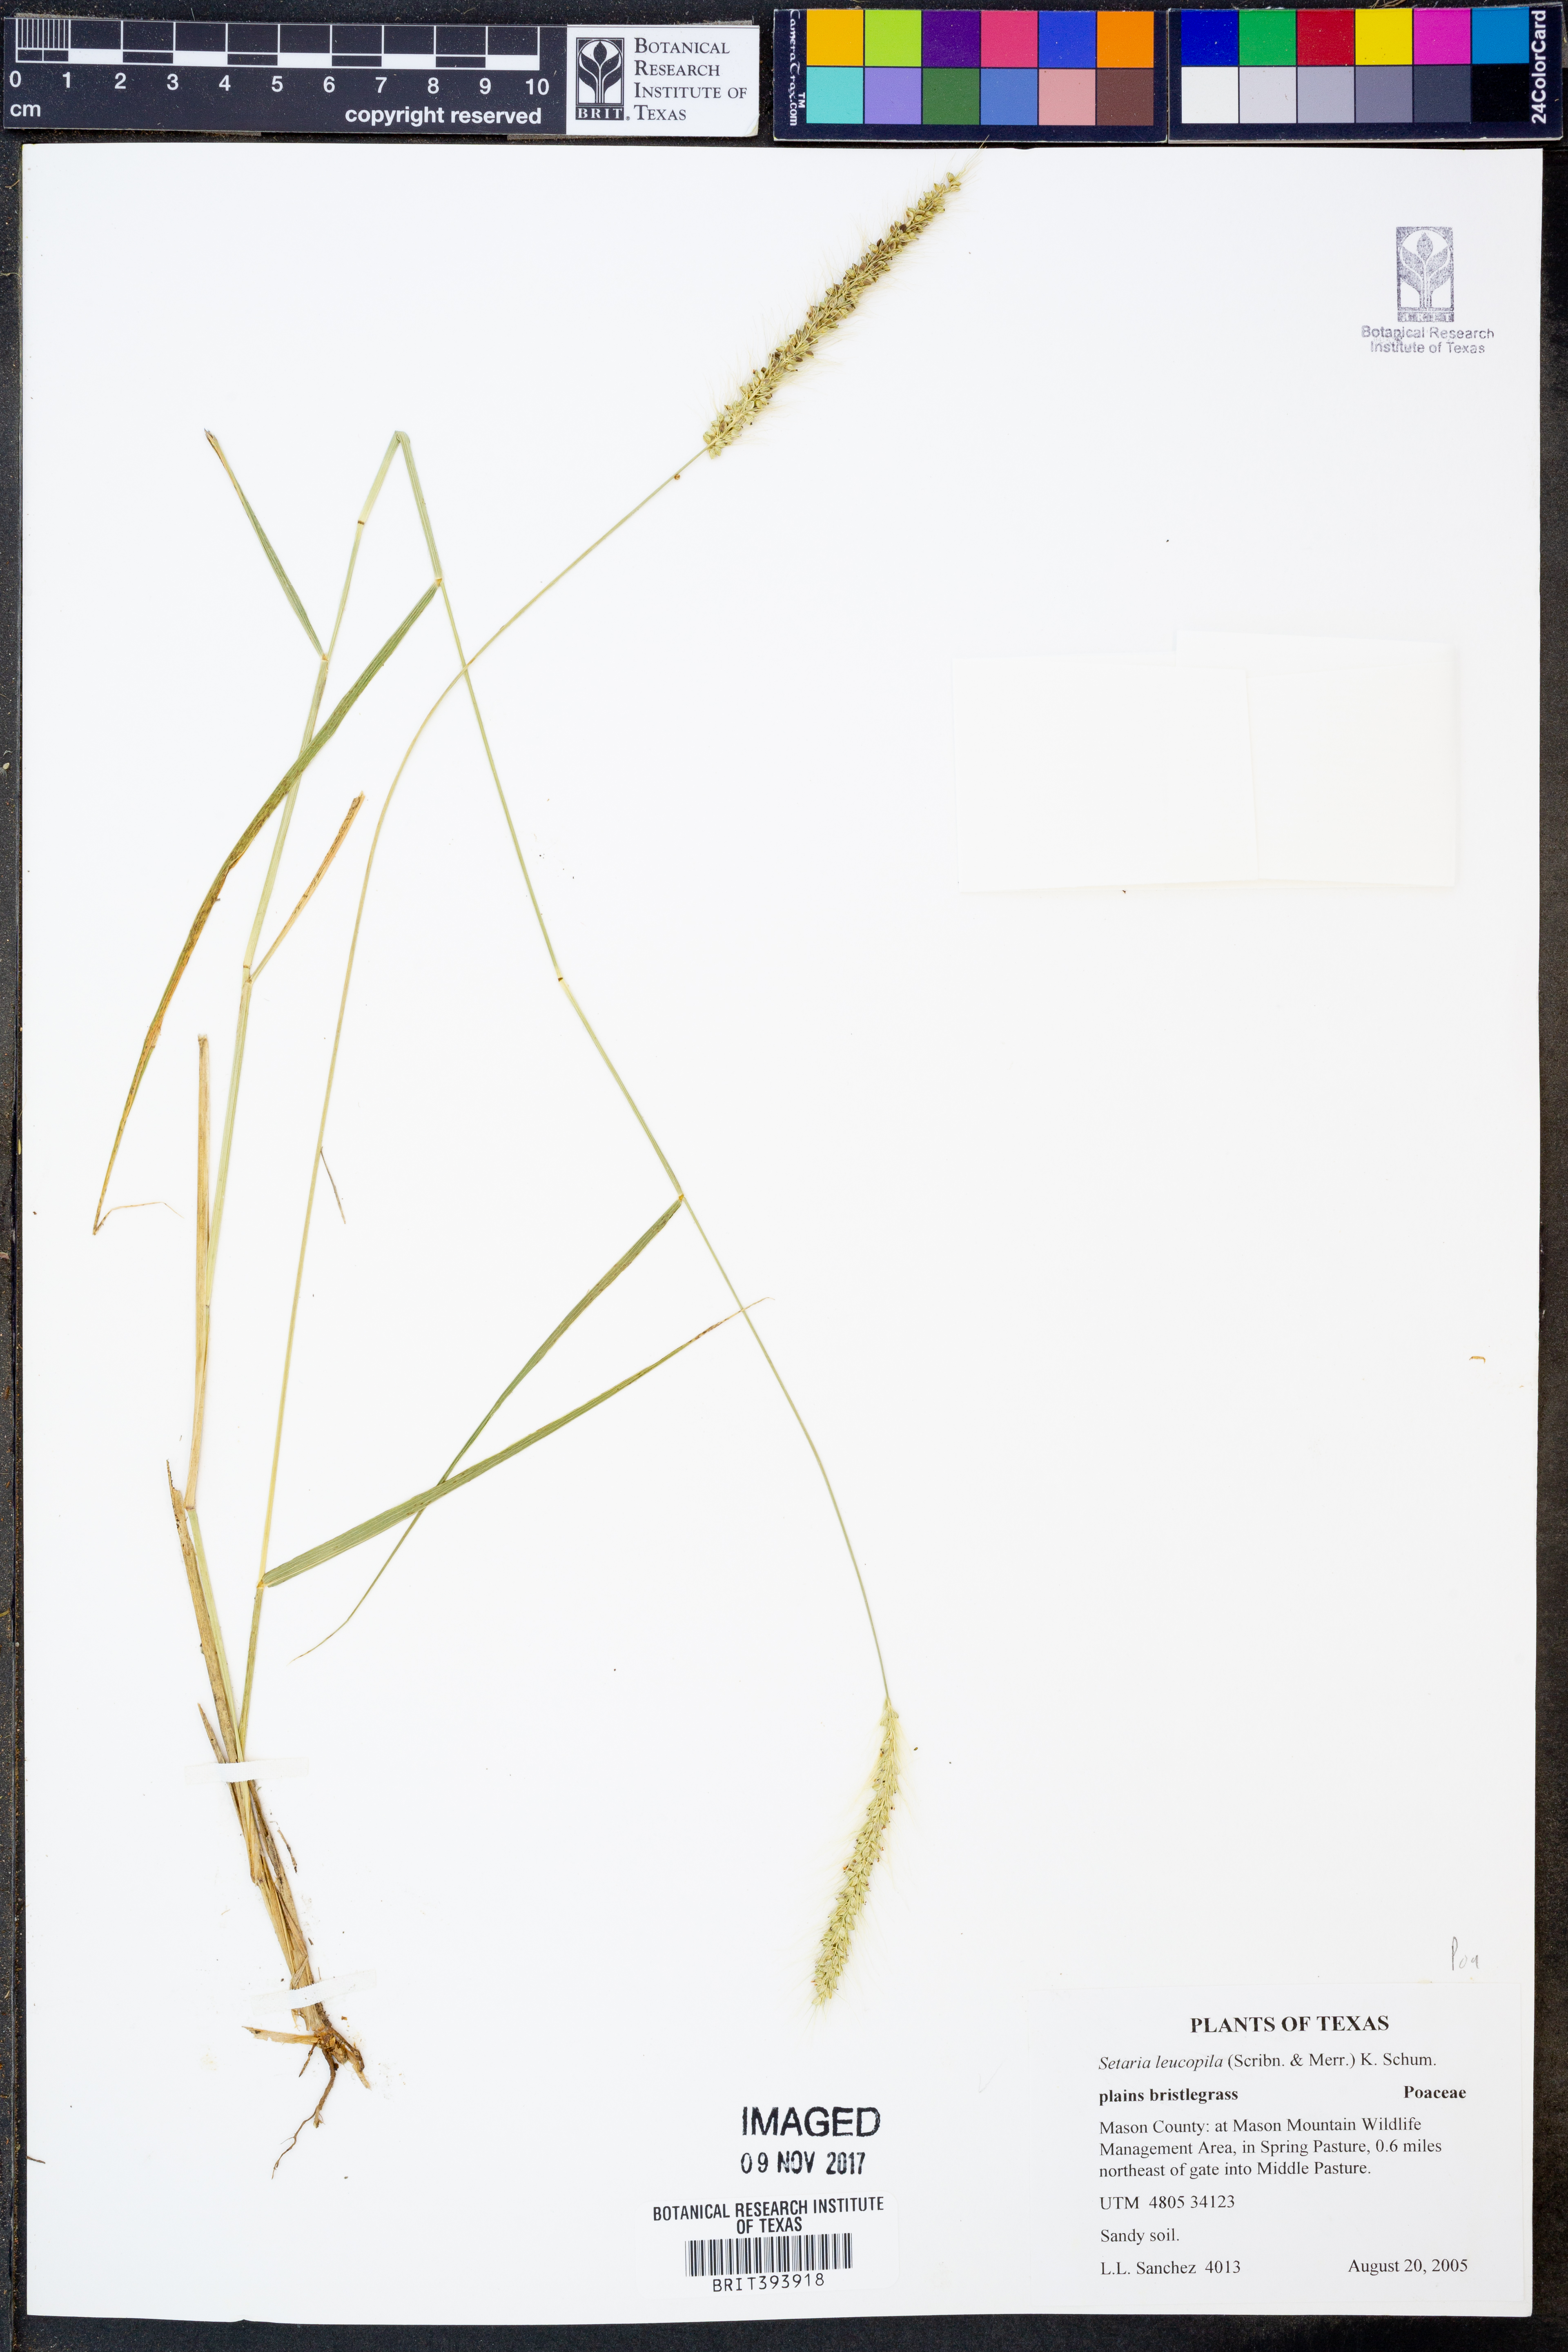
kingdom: Plantae
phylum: Tracheophyta
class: Liliopsida
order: Poales
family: Poaceae
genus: Setaria
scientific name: Setaria leucopila
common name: Plains bristle grass
